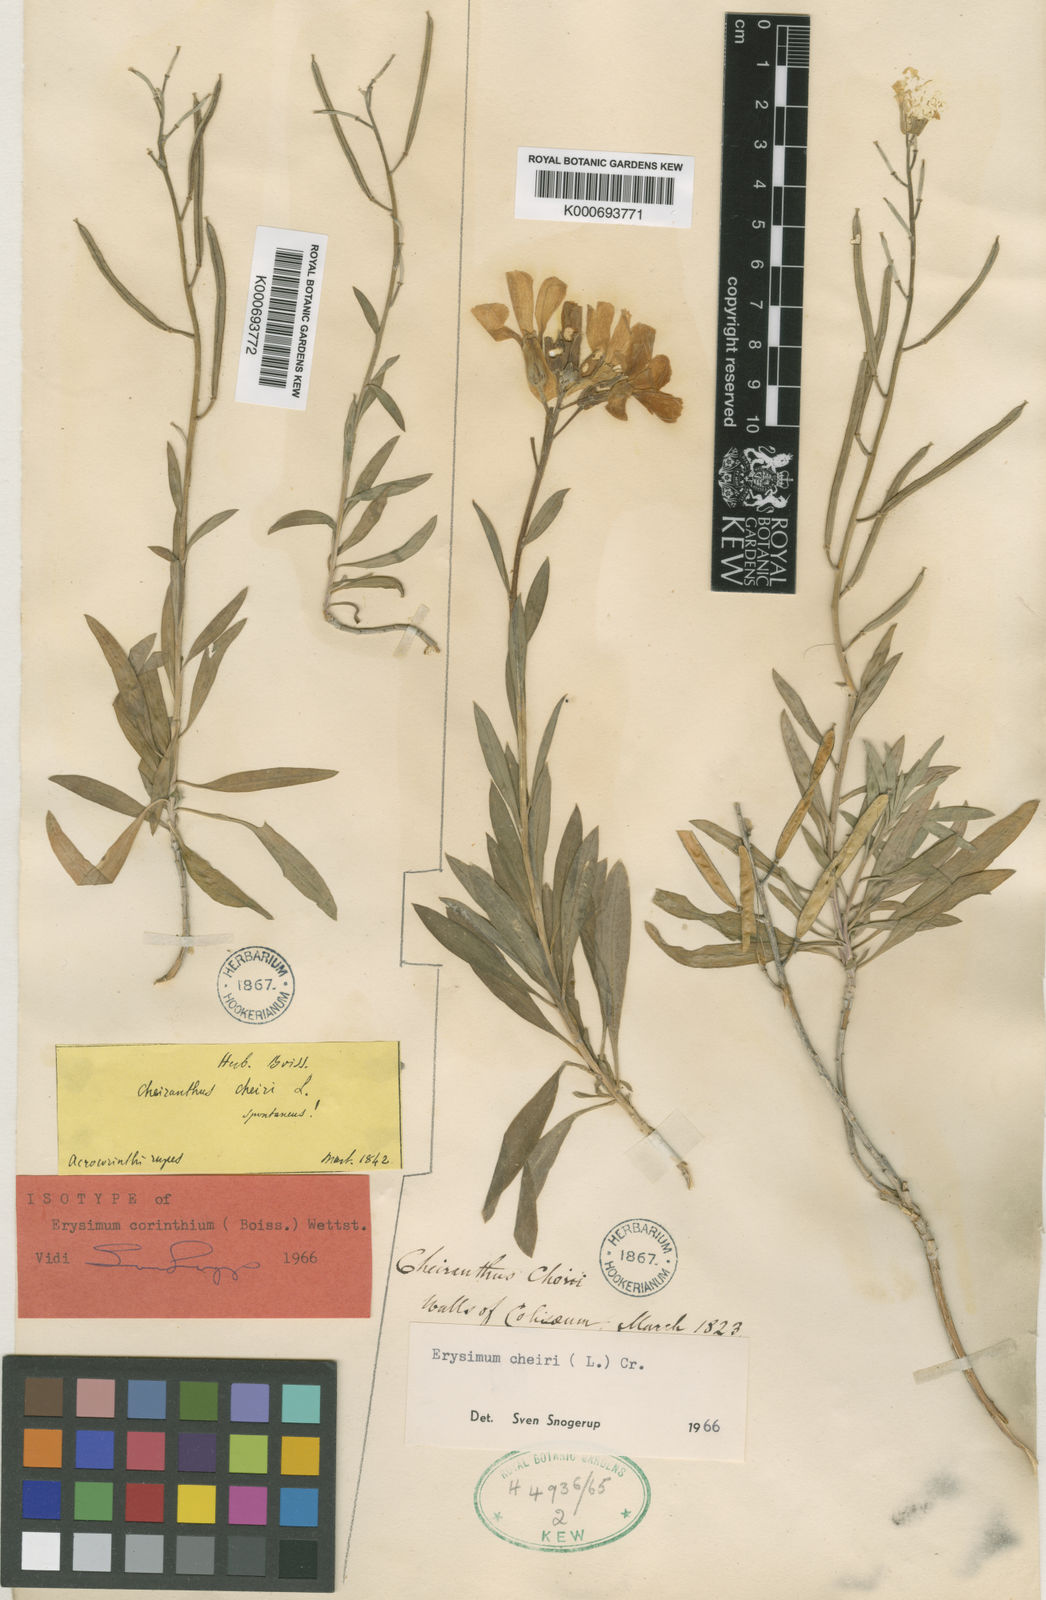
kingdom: Plantae
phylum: Tracheophyta
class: Magnoliopsida
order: Brassicales
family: Brassicaceae
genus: Erysimum
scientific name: Erysimum corinthium
